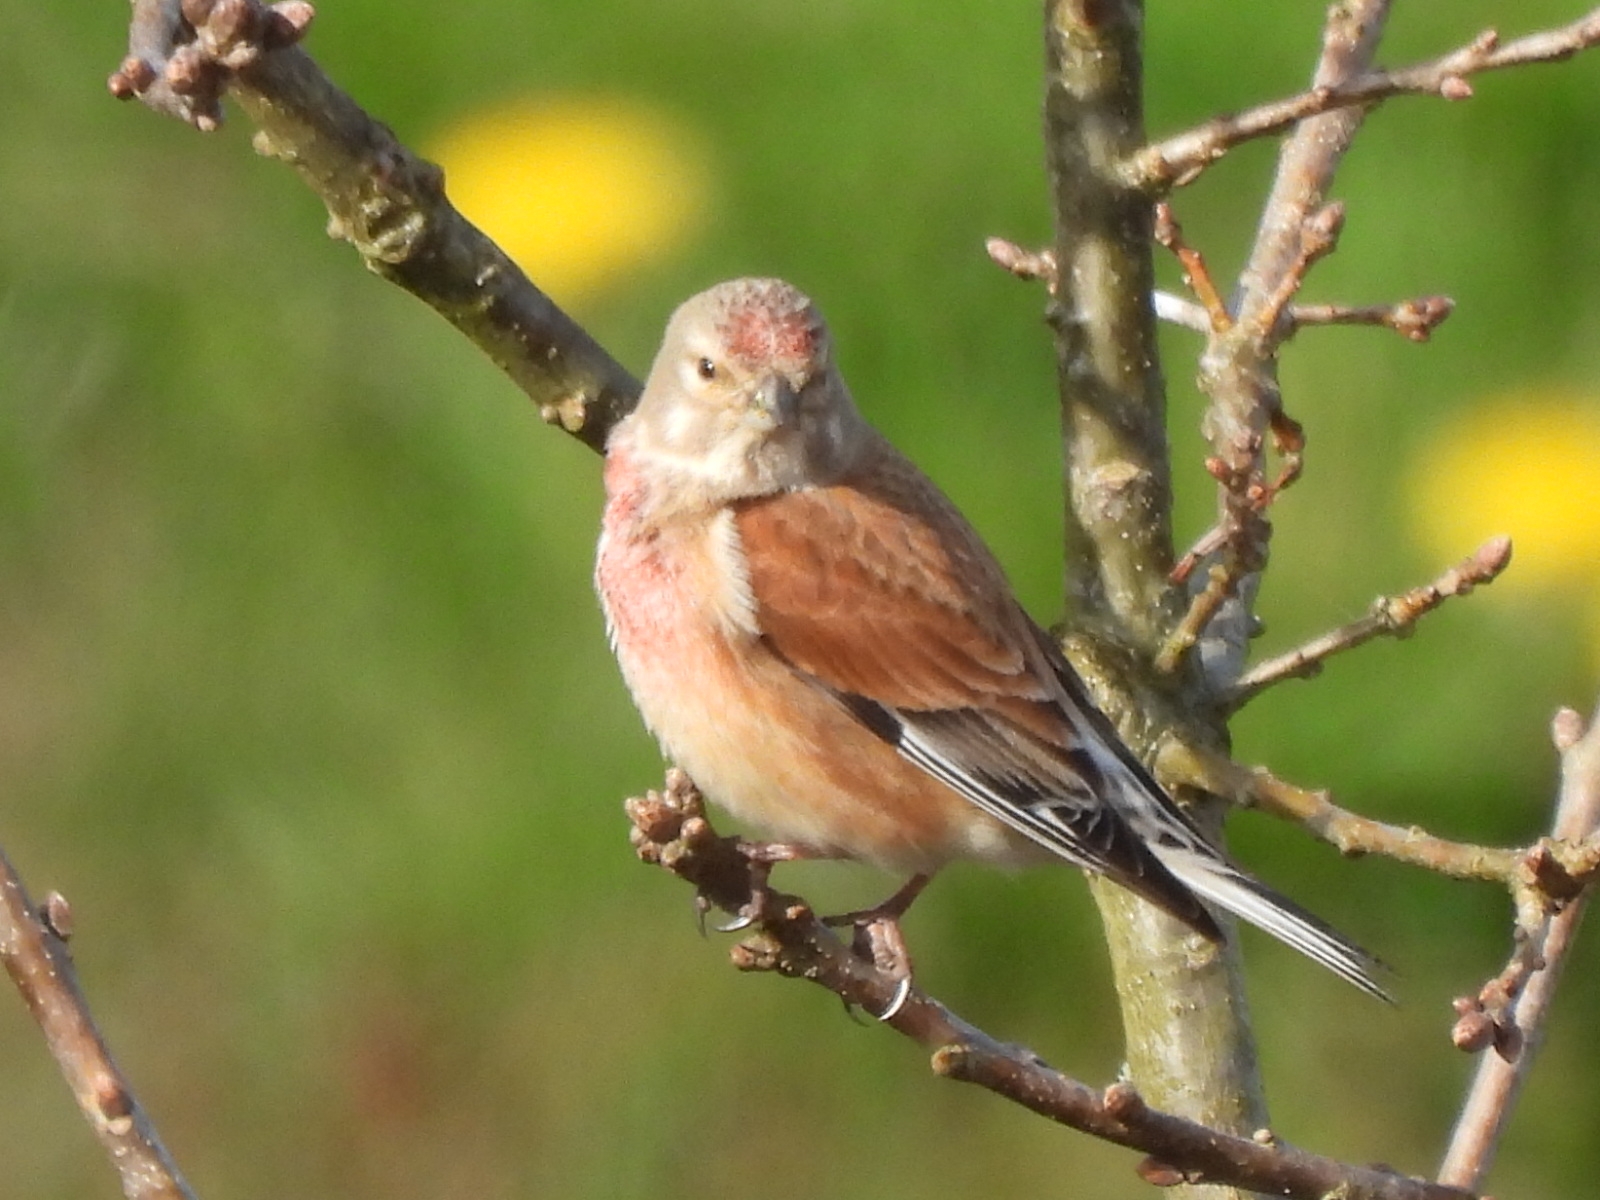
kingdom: Animalia
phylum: Chordata
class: Aves
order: Passeriformes
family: Fringillidae
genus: Linaria
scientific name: Linaria cannabina
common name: Tornirisk
